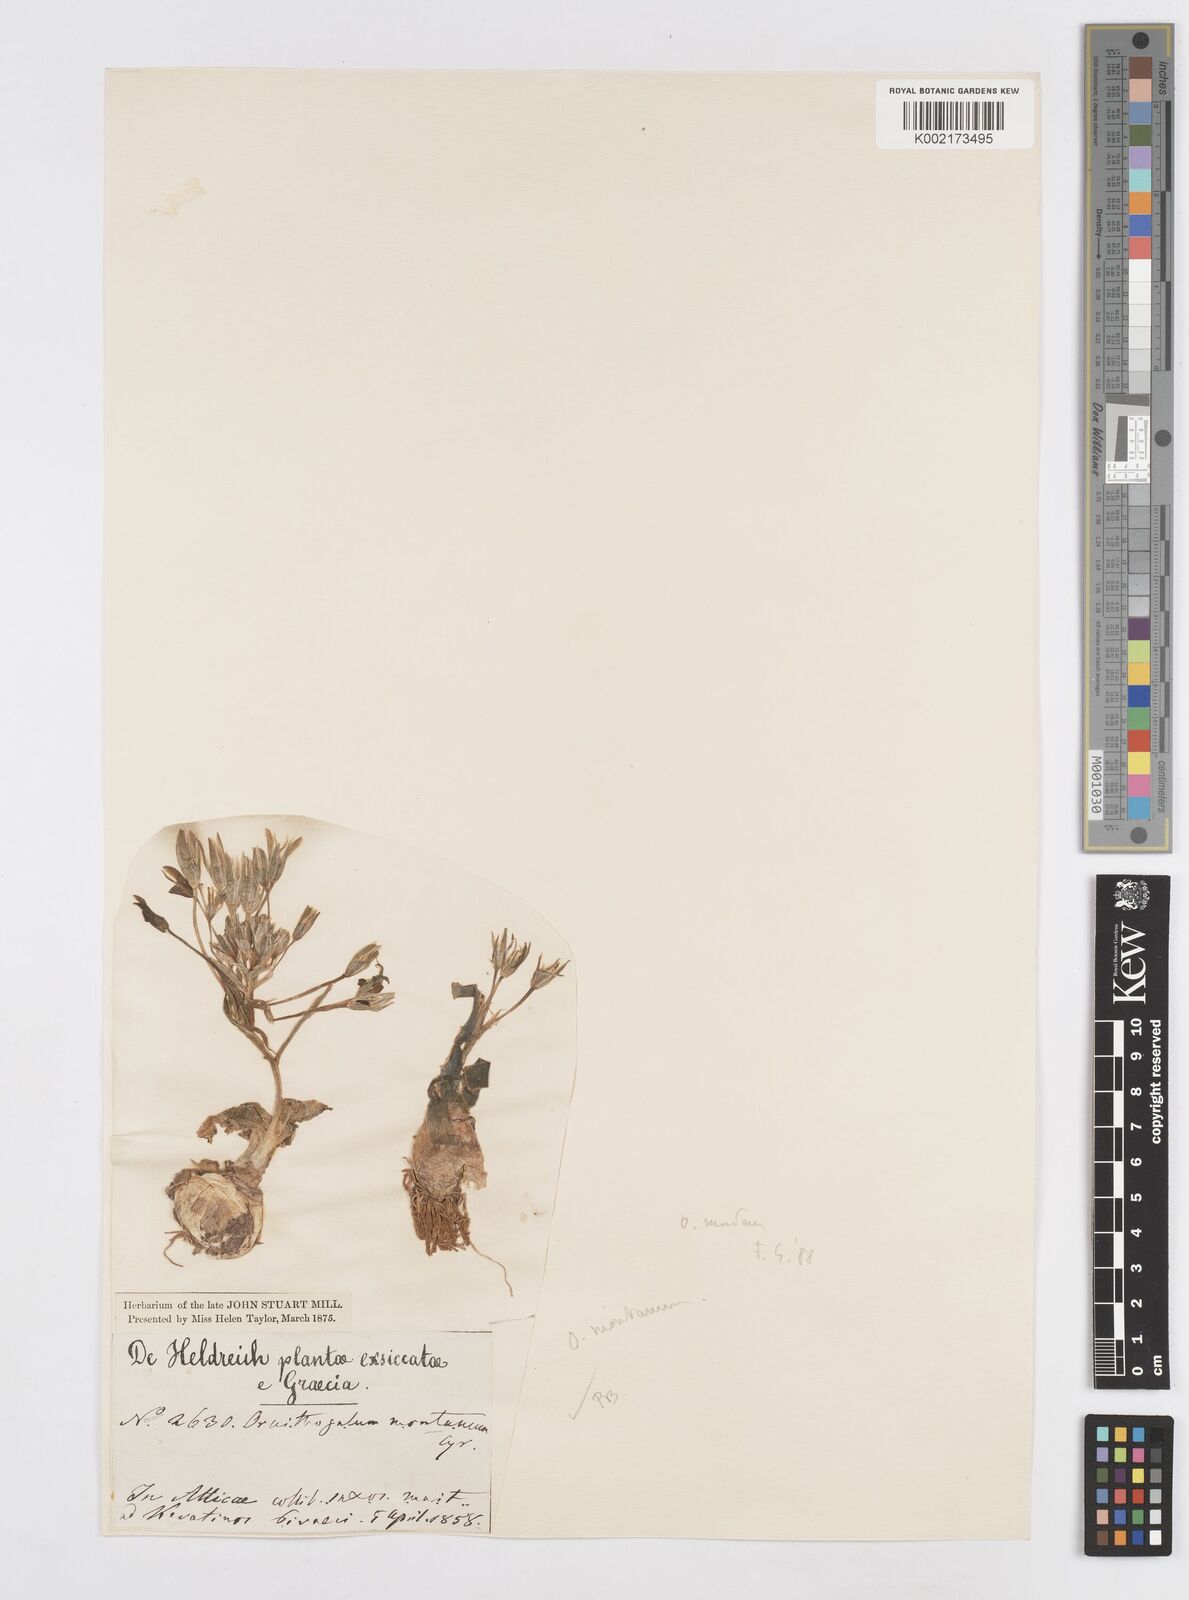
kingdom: Plantae
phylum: Tracheophyta
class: Liliopsida
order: Asparagales
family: Asparagaceae
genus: Ornithogalum
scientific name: Ornithogalum montanum
